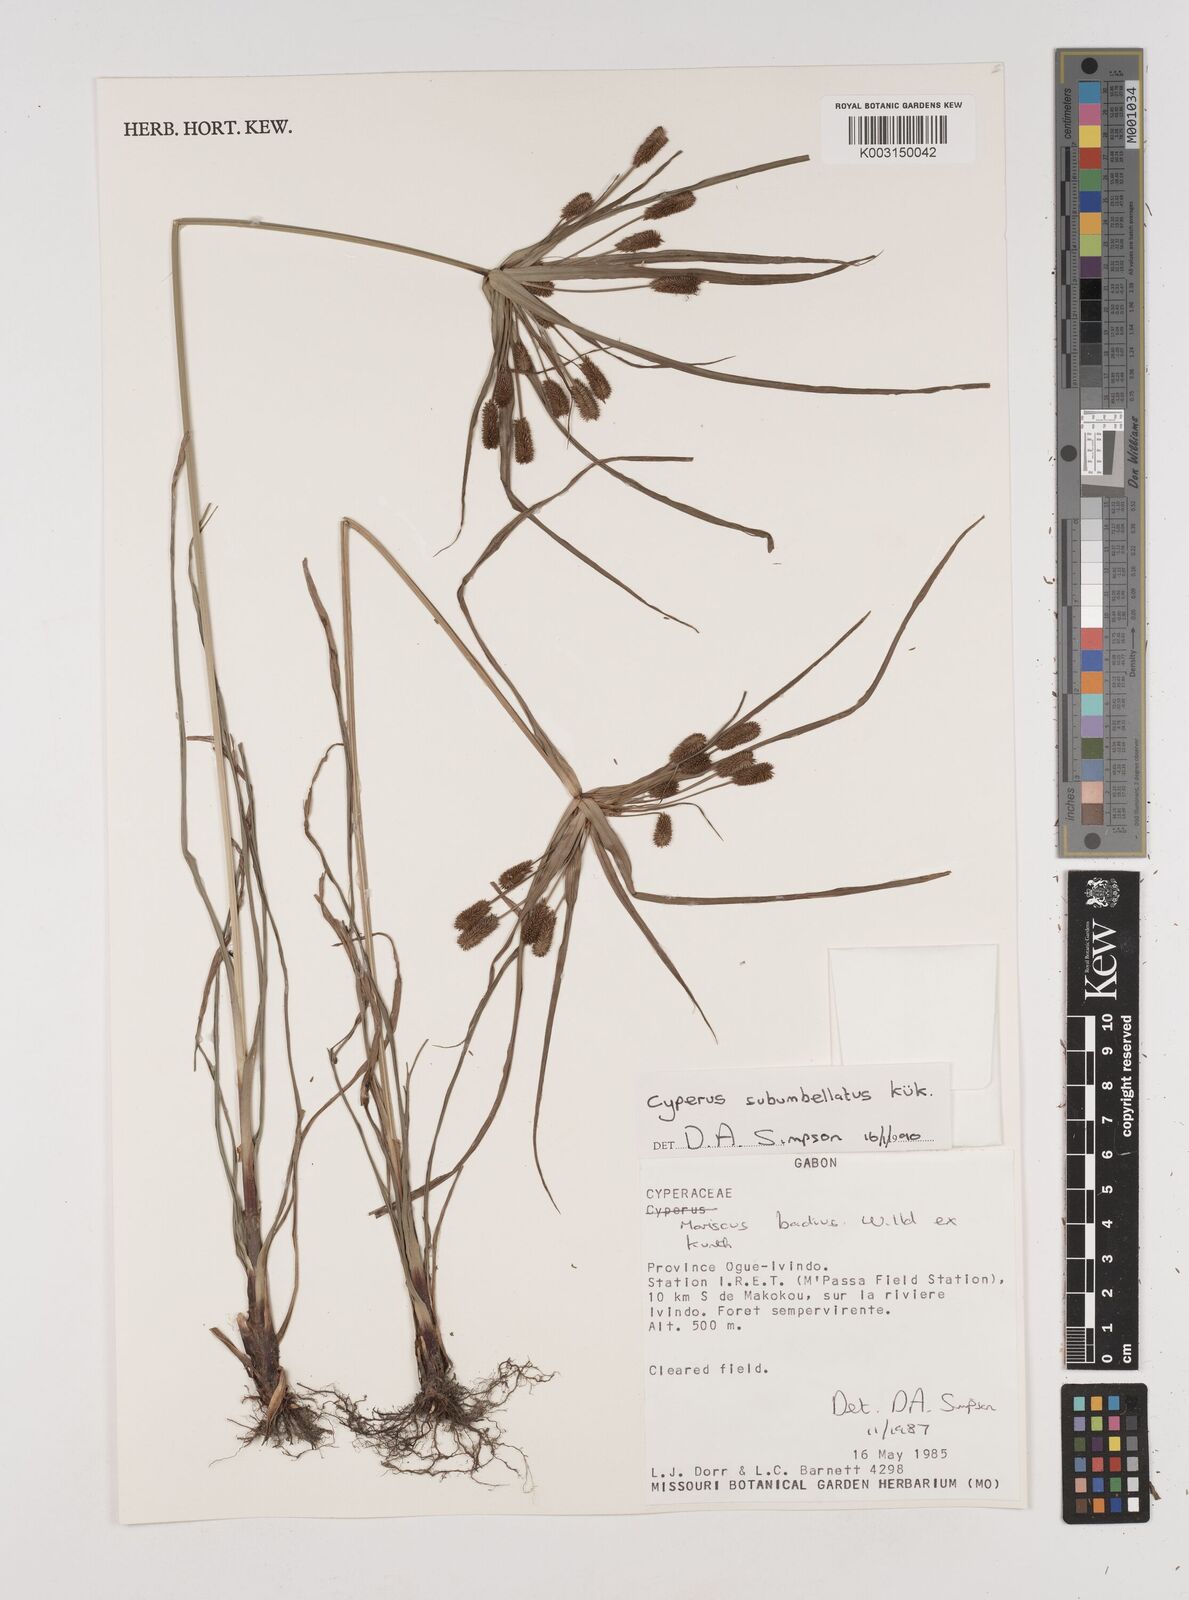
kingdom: Plantae
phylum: Tracheophyta
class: Liliopsida
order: Poales
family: Cyperaceae
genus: Cyperus
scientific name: Cyperus cyperoides
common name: Pacific island flat sedge
